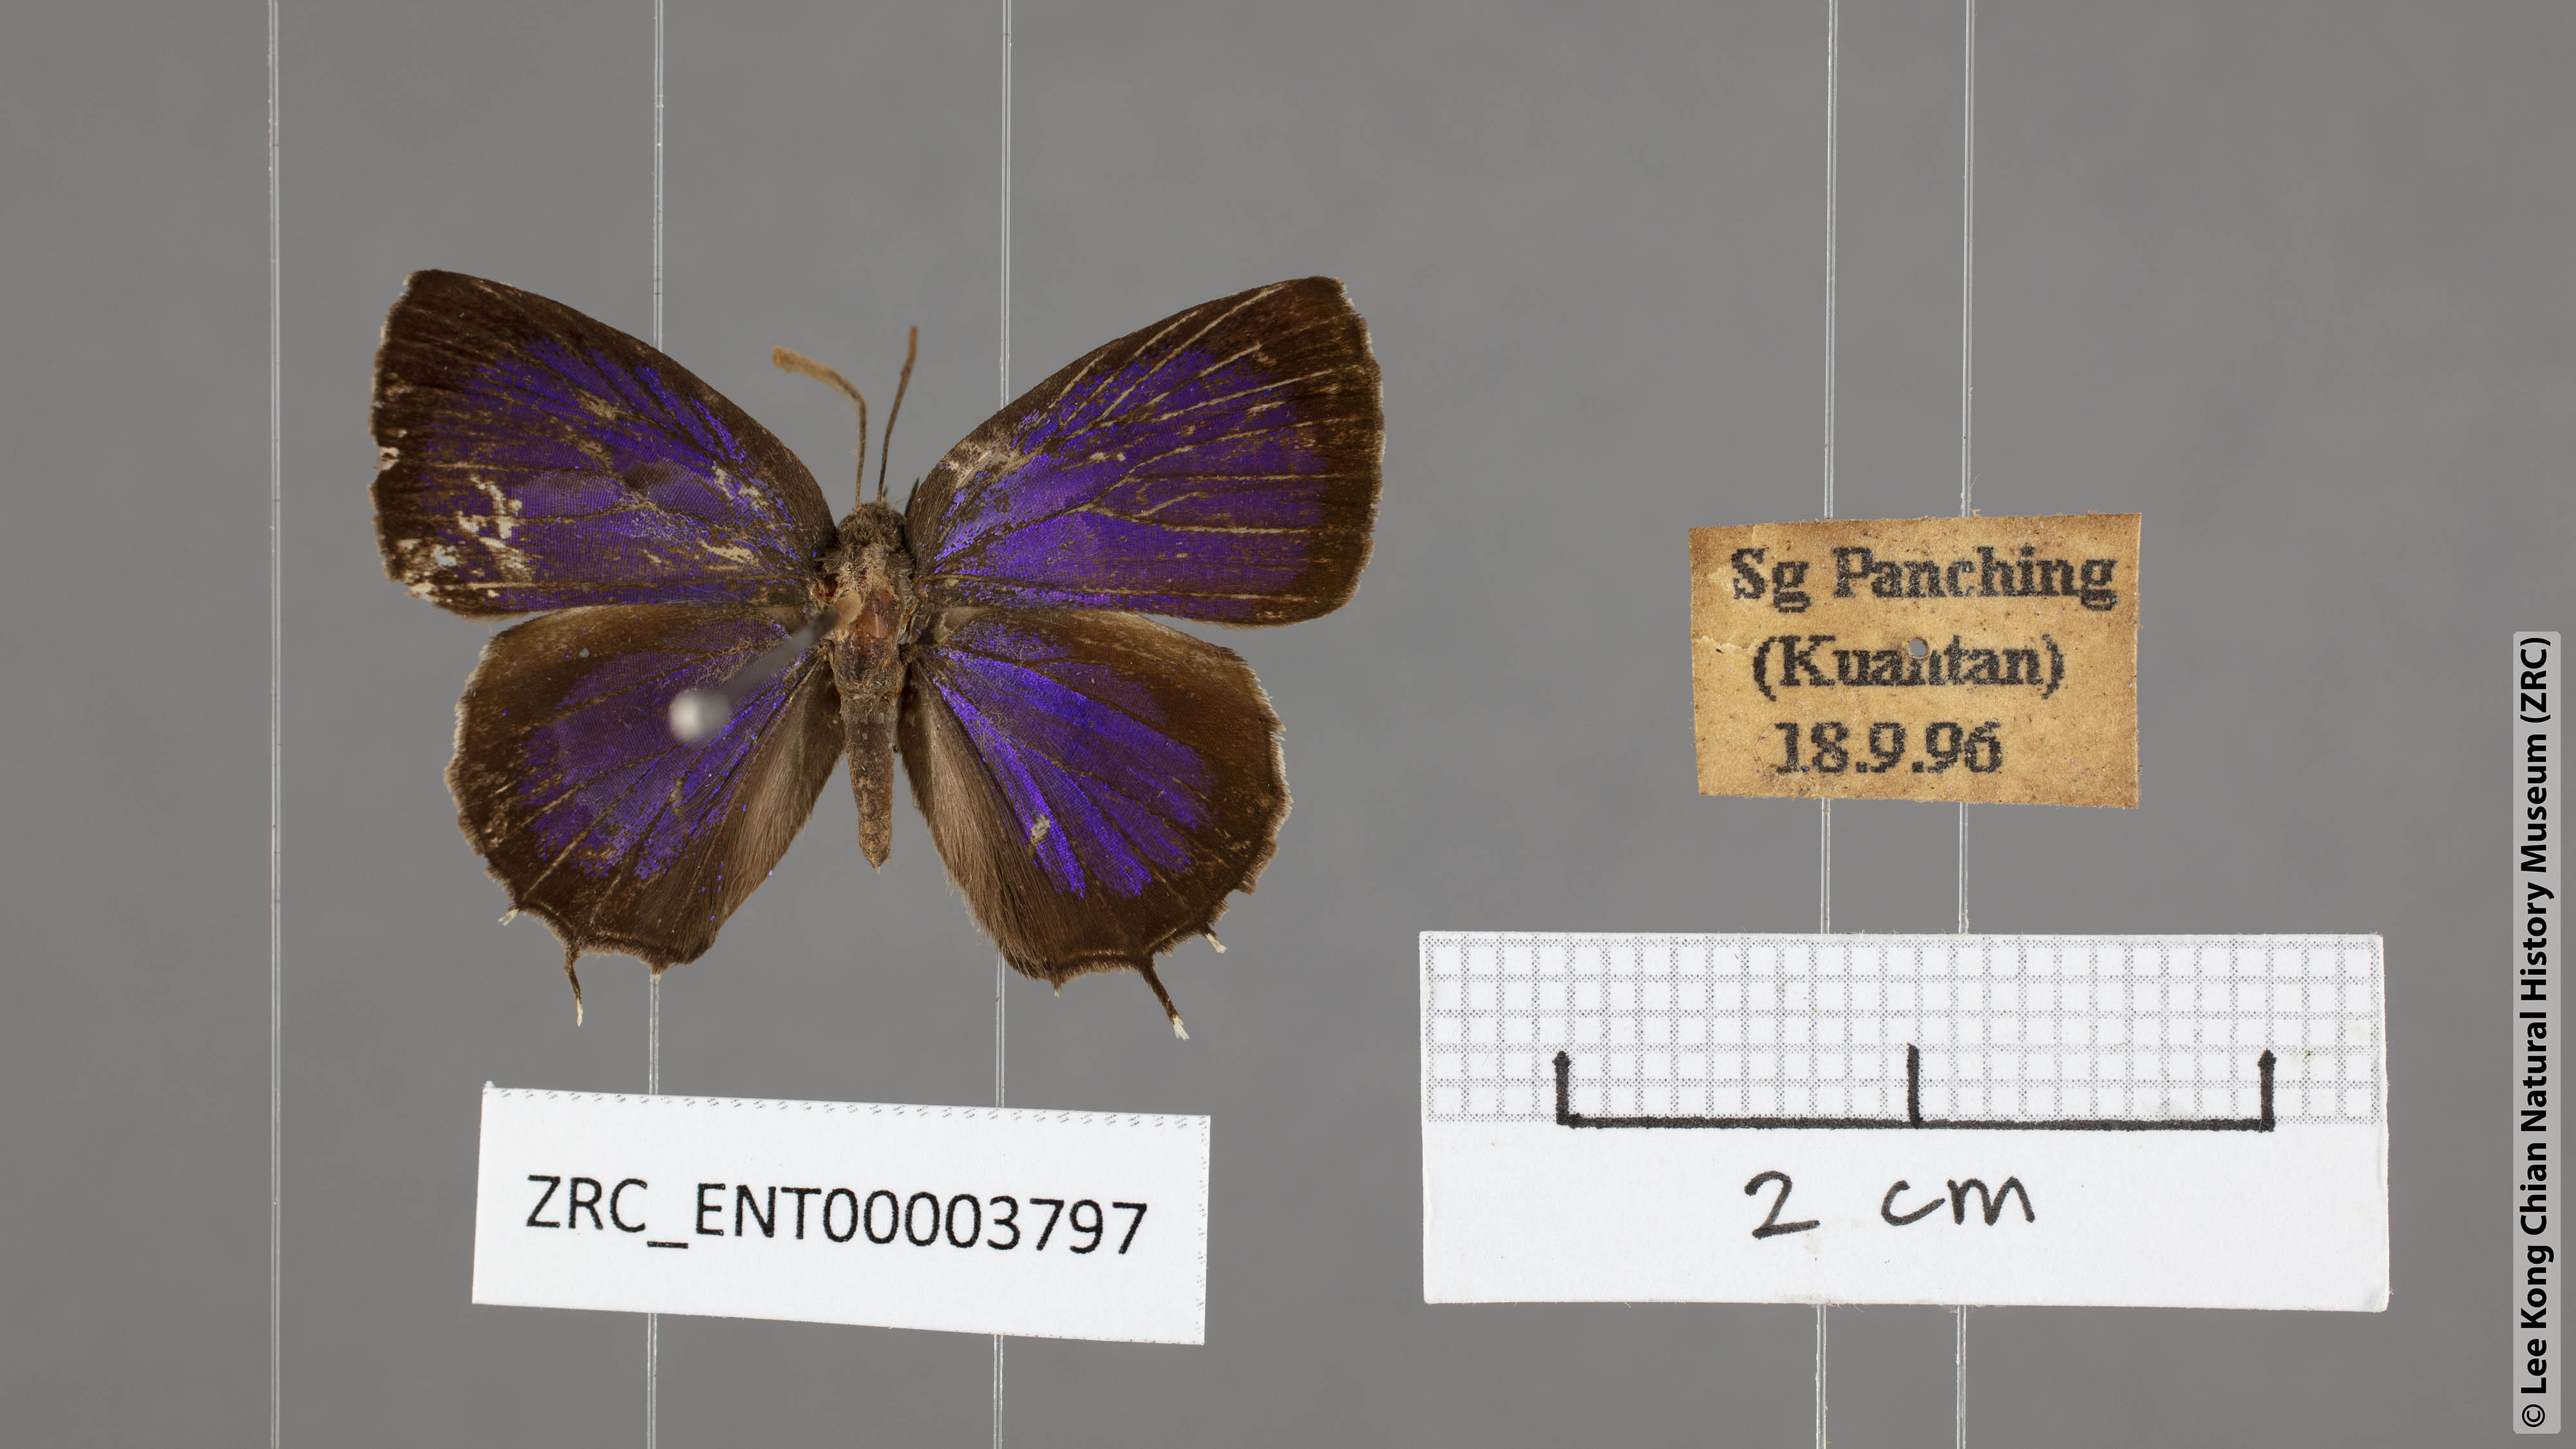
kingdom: Animalia
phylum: Arthropoda
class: Insecta
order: Lepidoptera
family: Lycaenidae
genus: Arhopala
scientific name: Arhopala abseus
